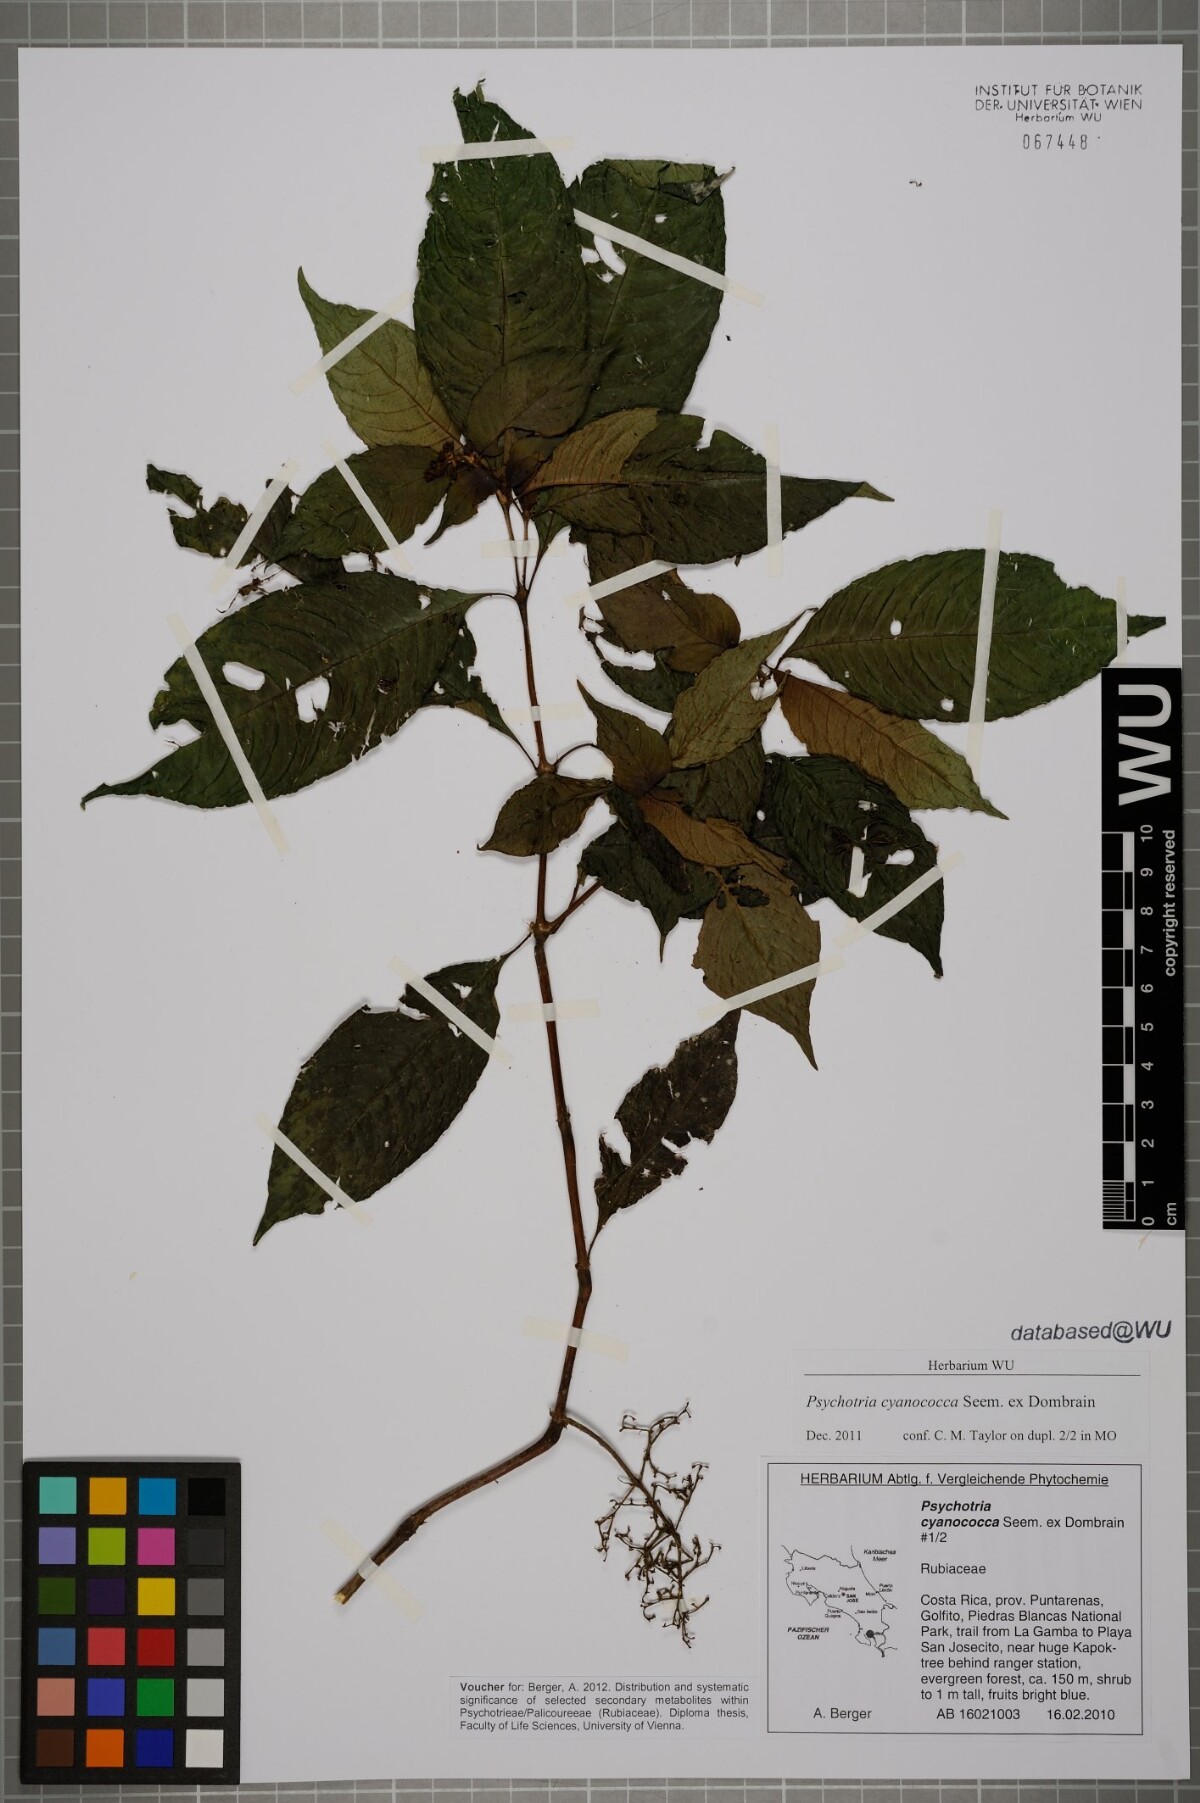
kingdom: Plantae
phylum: Tracheophyta
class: Magnoliopsida
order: Gentianales
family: Rubiaceae
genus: Palicourea
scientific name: Palicourea cyanococca
